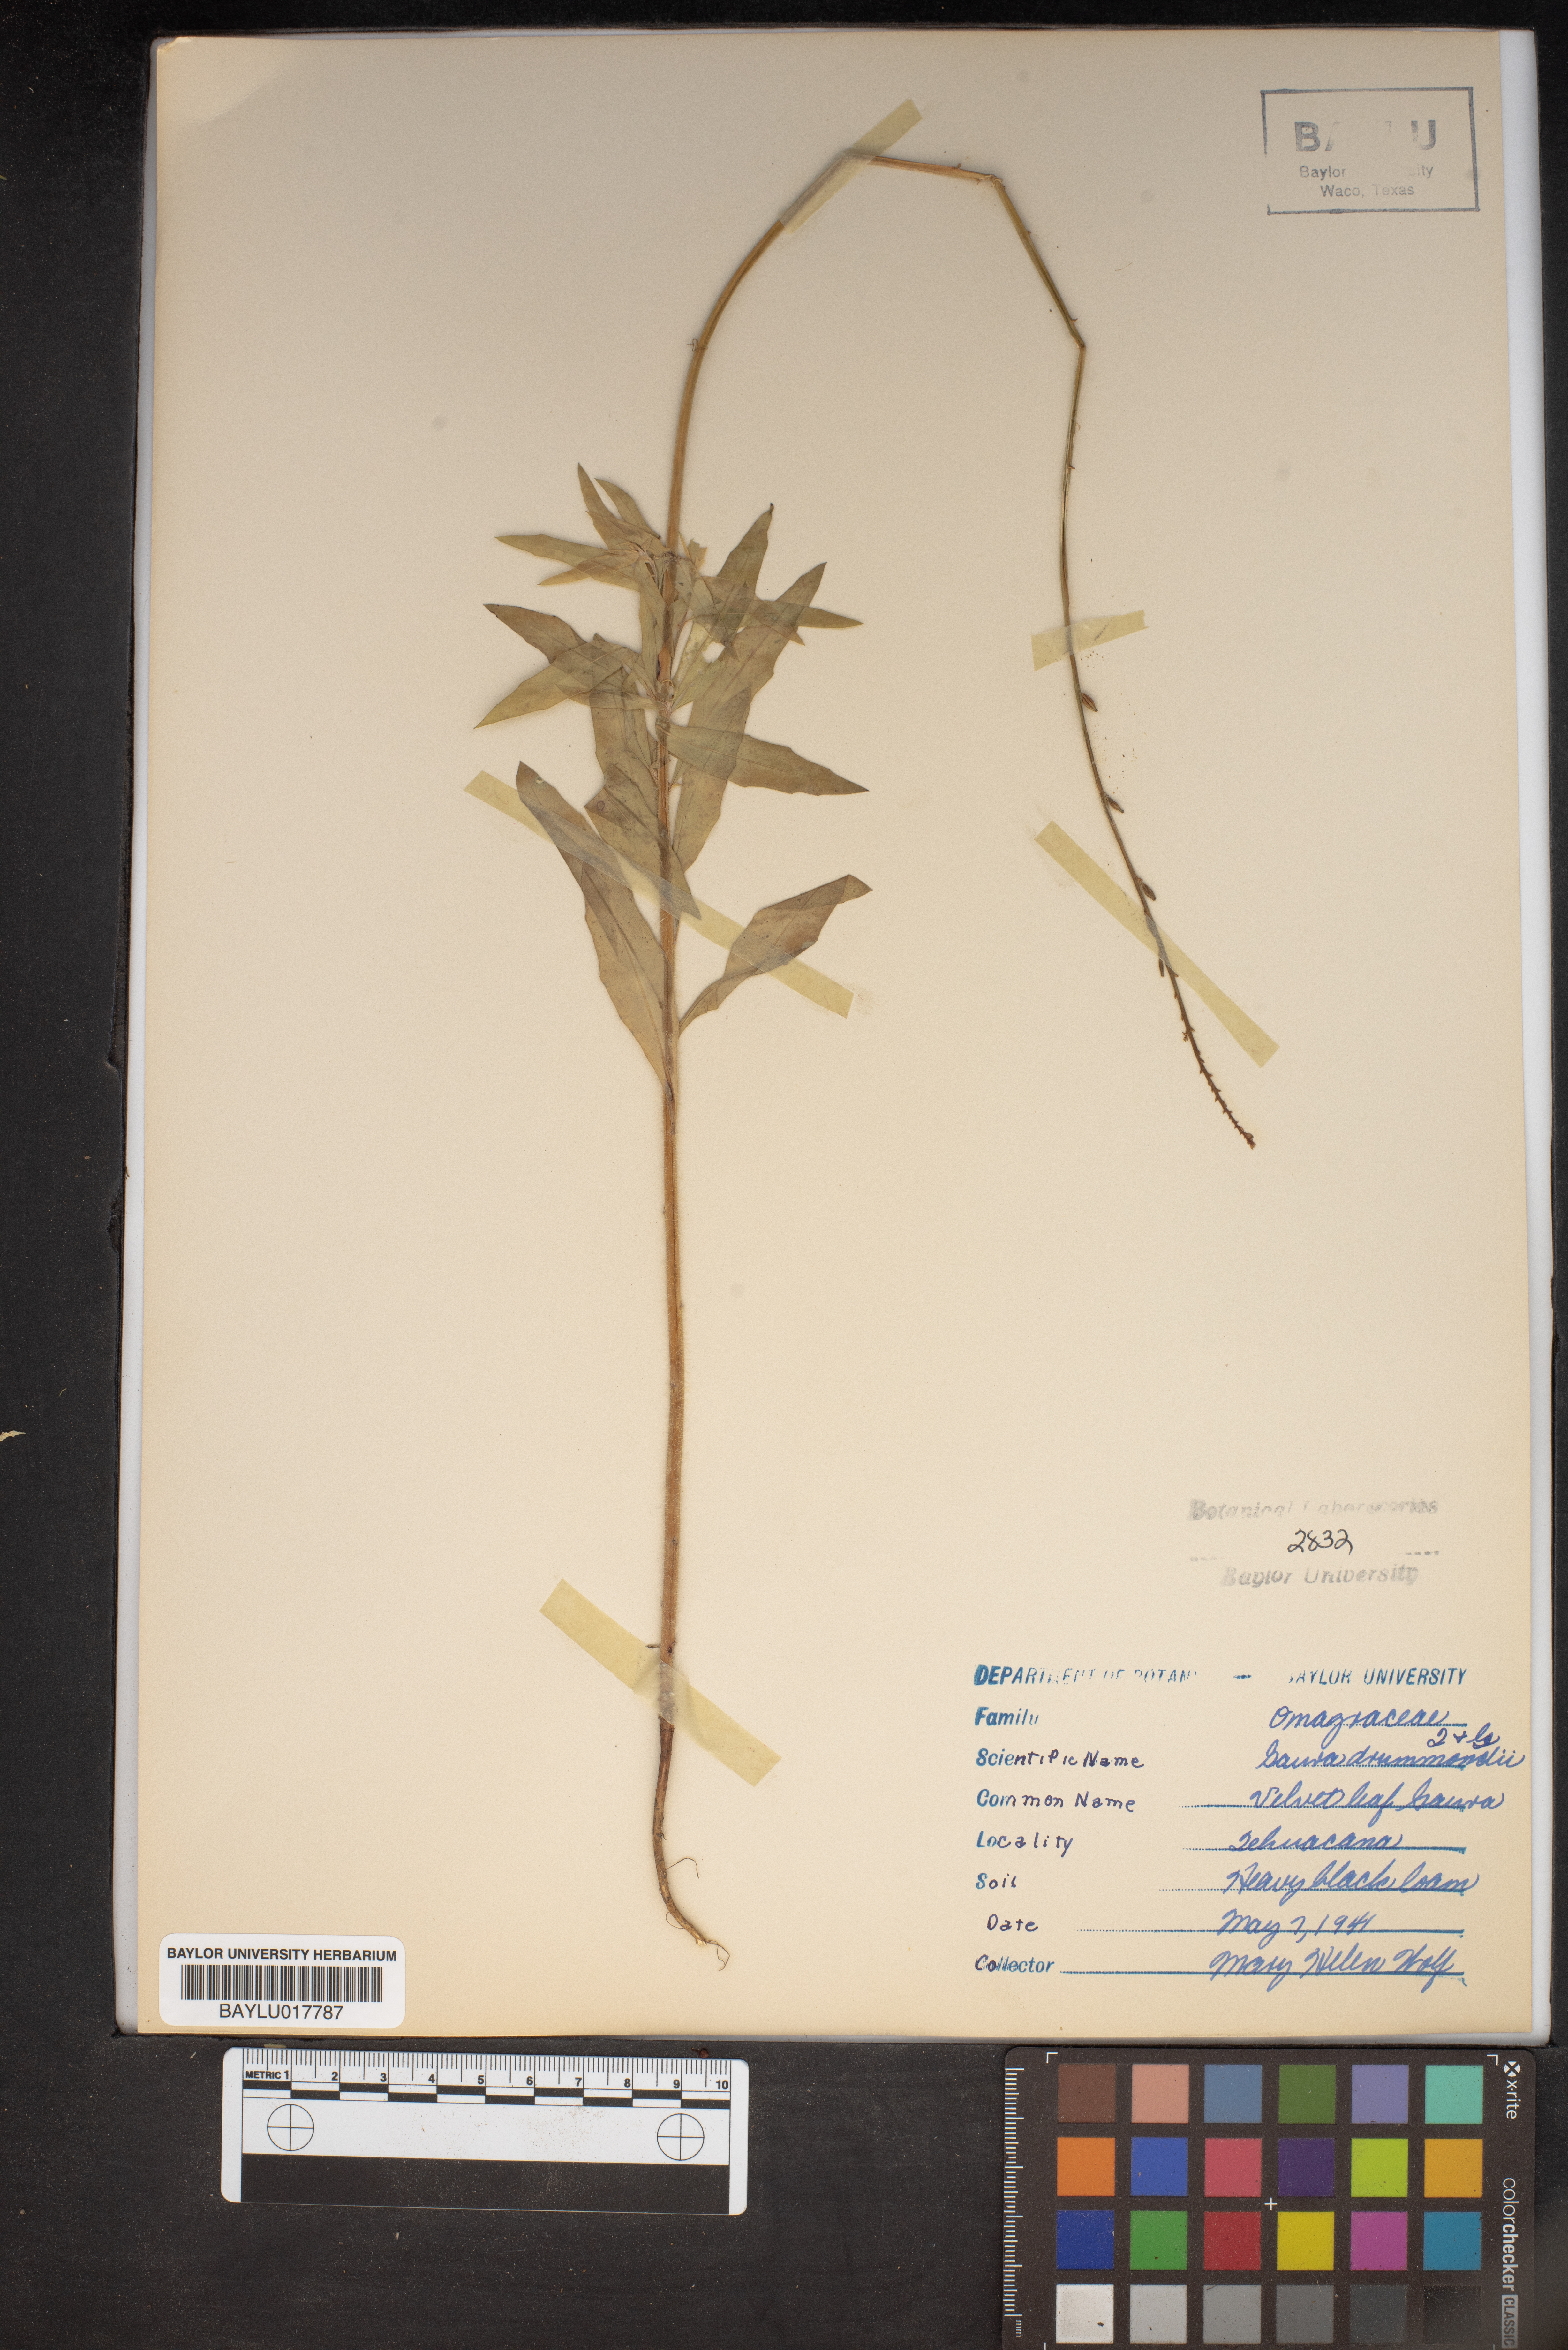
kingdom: Plantae
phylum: Tracheophyta
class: Magnoliopsida
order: Myrtales
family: Onagraceae
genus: Oenothera
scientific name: Oenothera hispida
